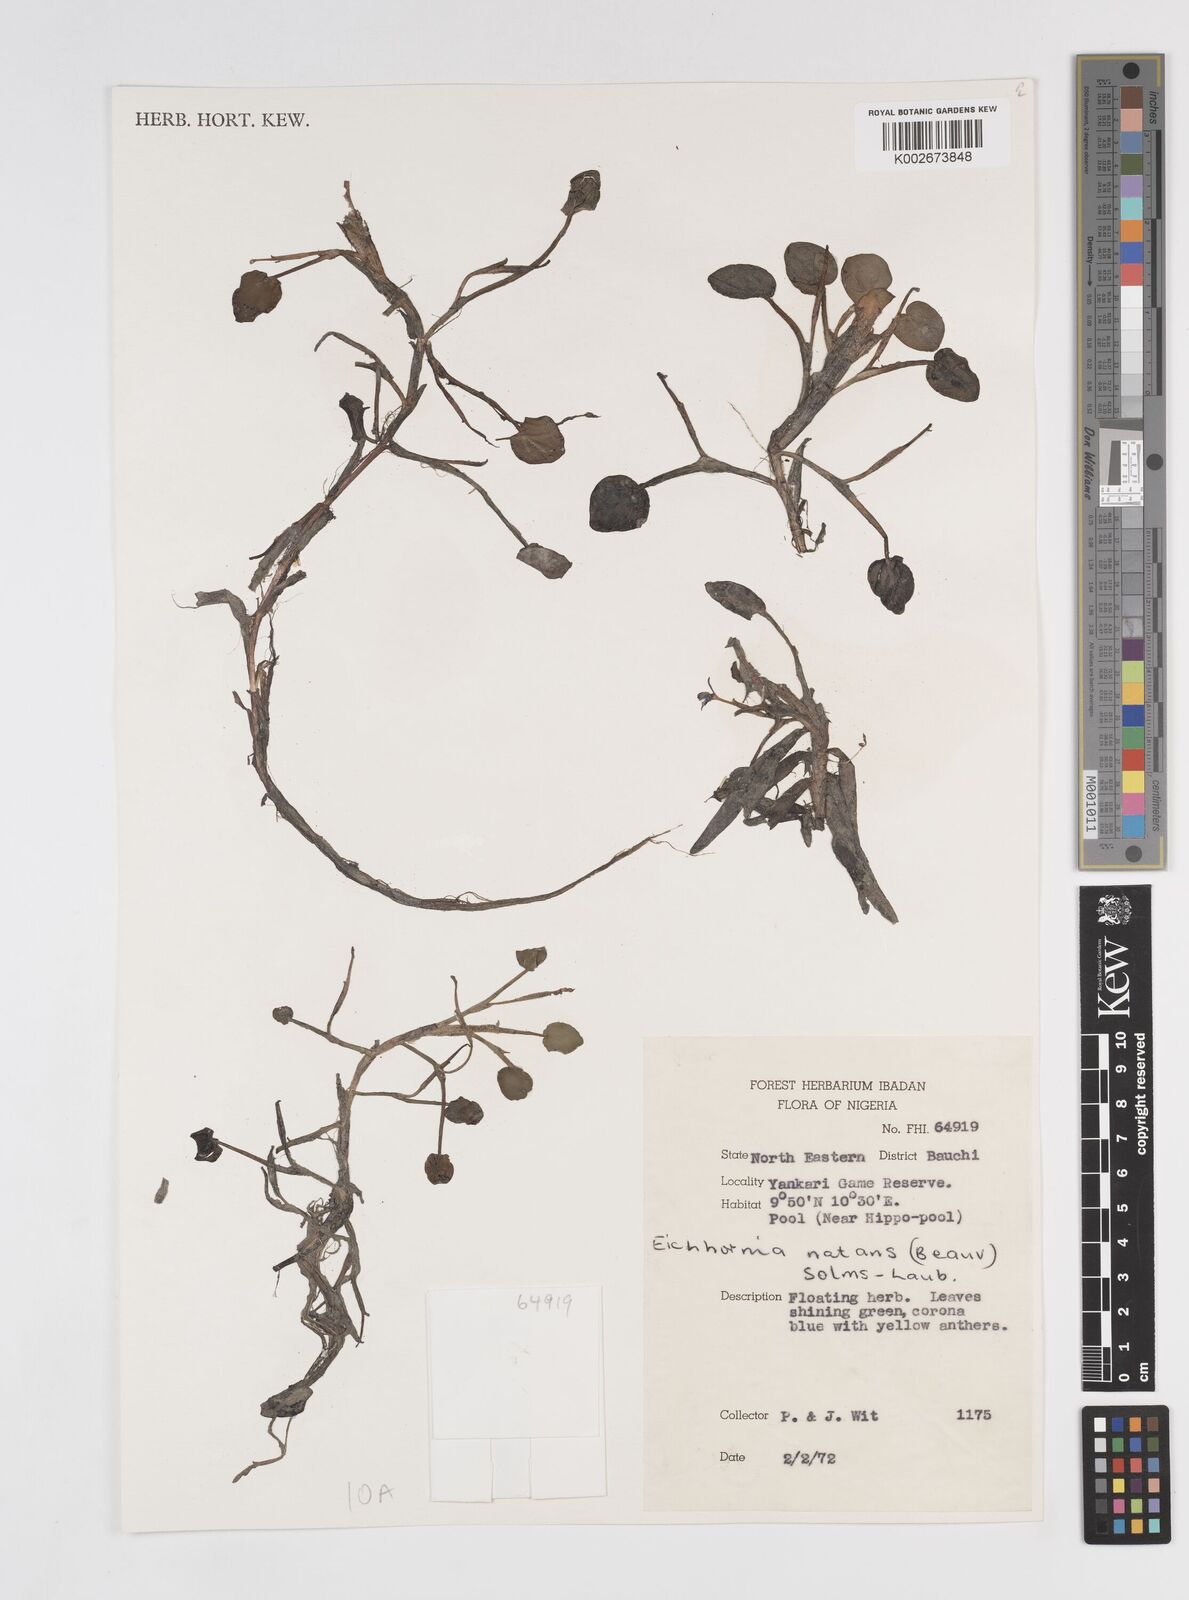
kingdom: Plantae
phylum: Tracheophyta
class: Liliopsida
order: Commelinales
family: Pontederiaceae
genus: Pontederia
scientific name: Pontederia diversifolia
